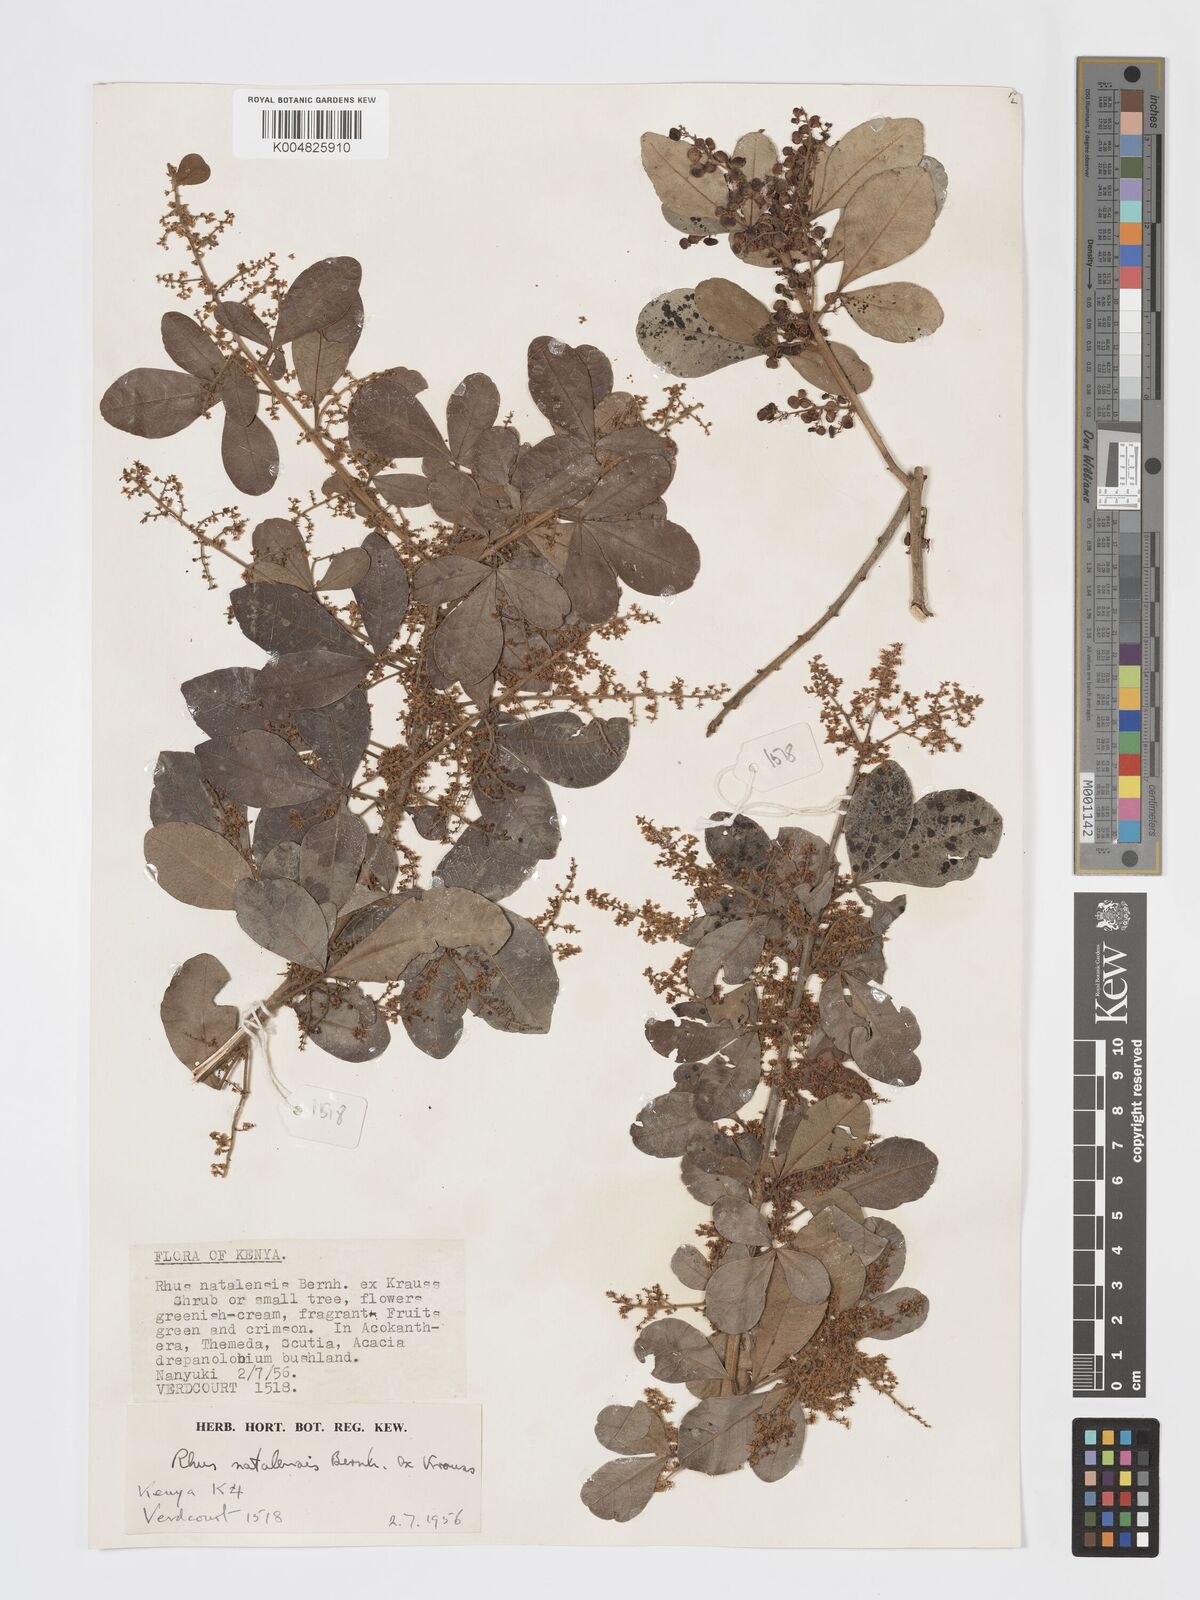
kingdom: Plantae
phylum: Tracheophyta
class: Magnoliopsida
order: Sapindales
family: Anacardiaceae
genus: Searsia
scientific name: Searsia natalensis
